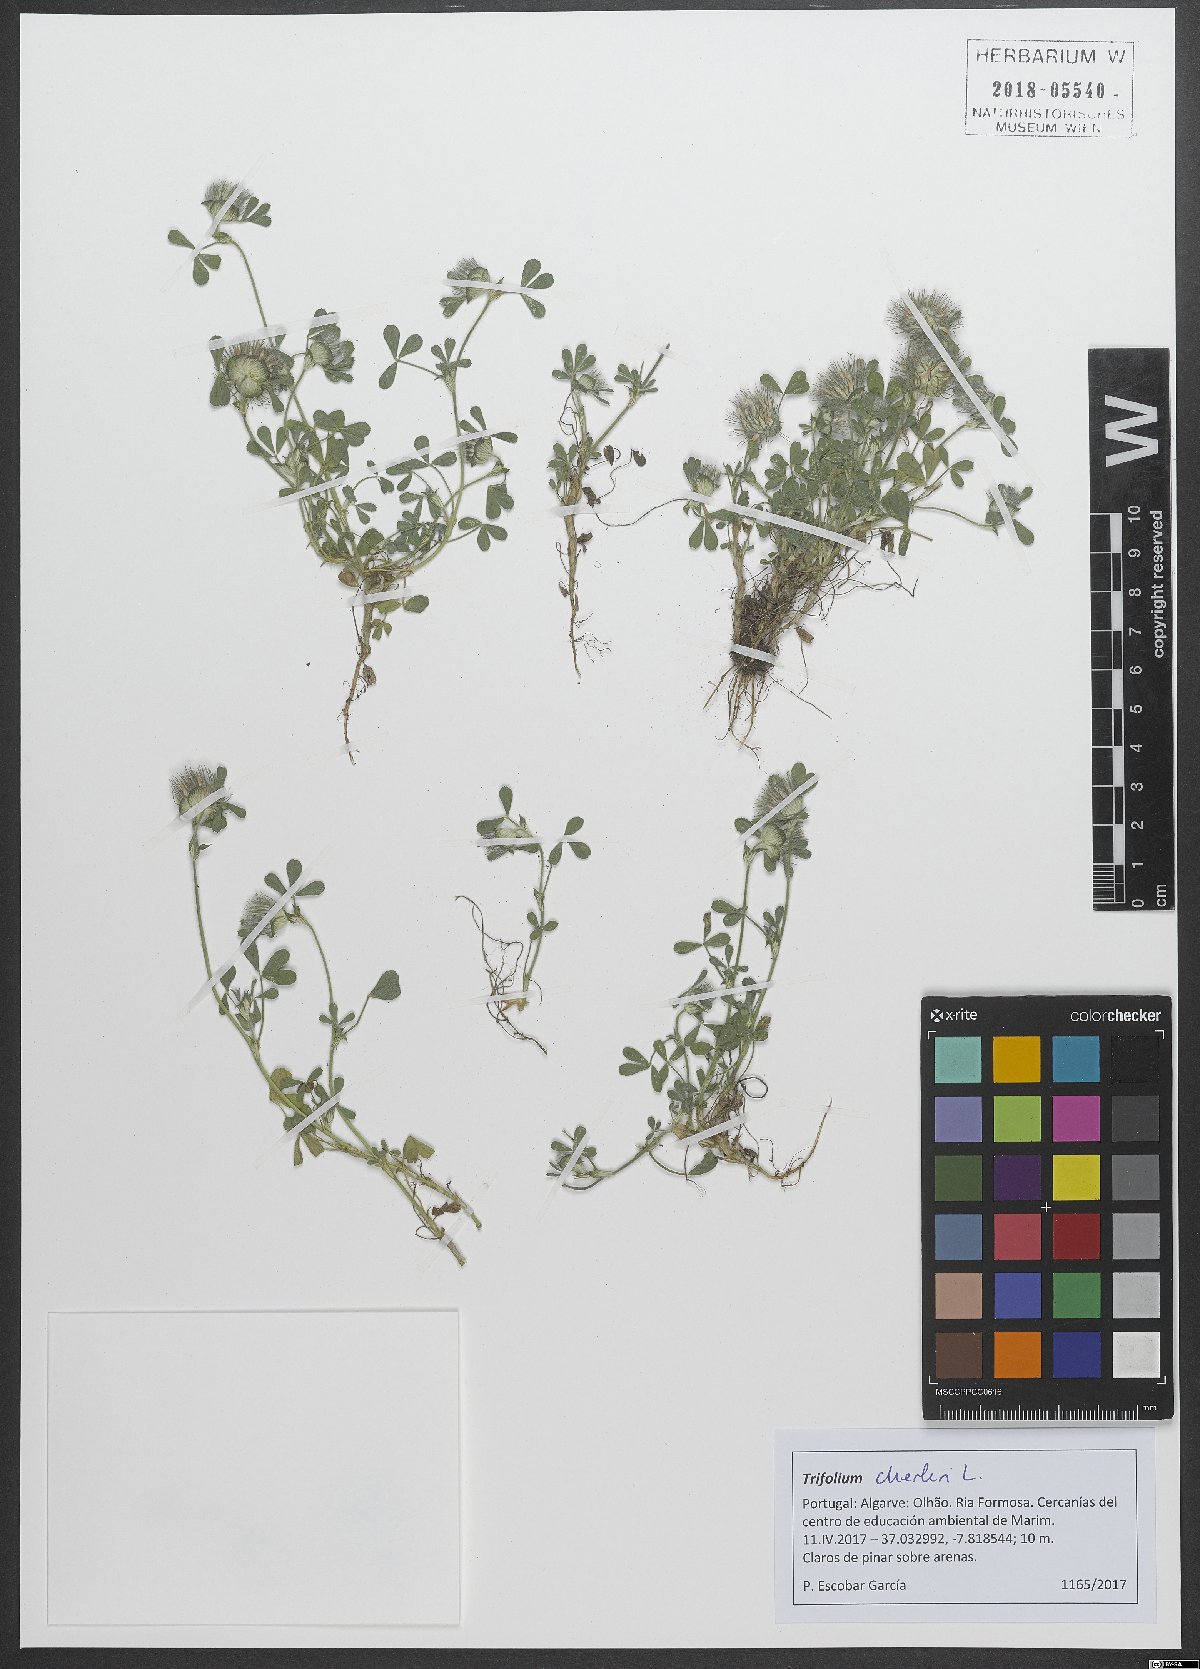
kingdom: Plantae
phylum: Tracheophyta
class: Magnoliopsida
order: Fabales
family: Fabaceae
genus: Trifolium
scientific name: Trifolium cherleri
